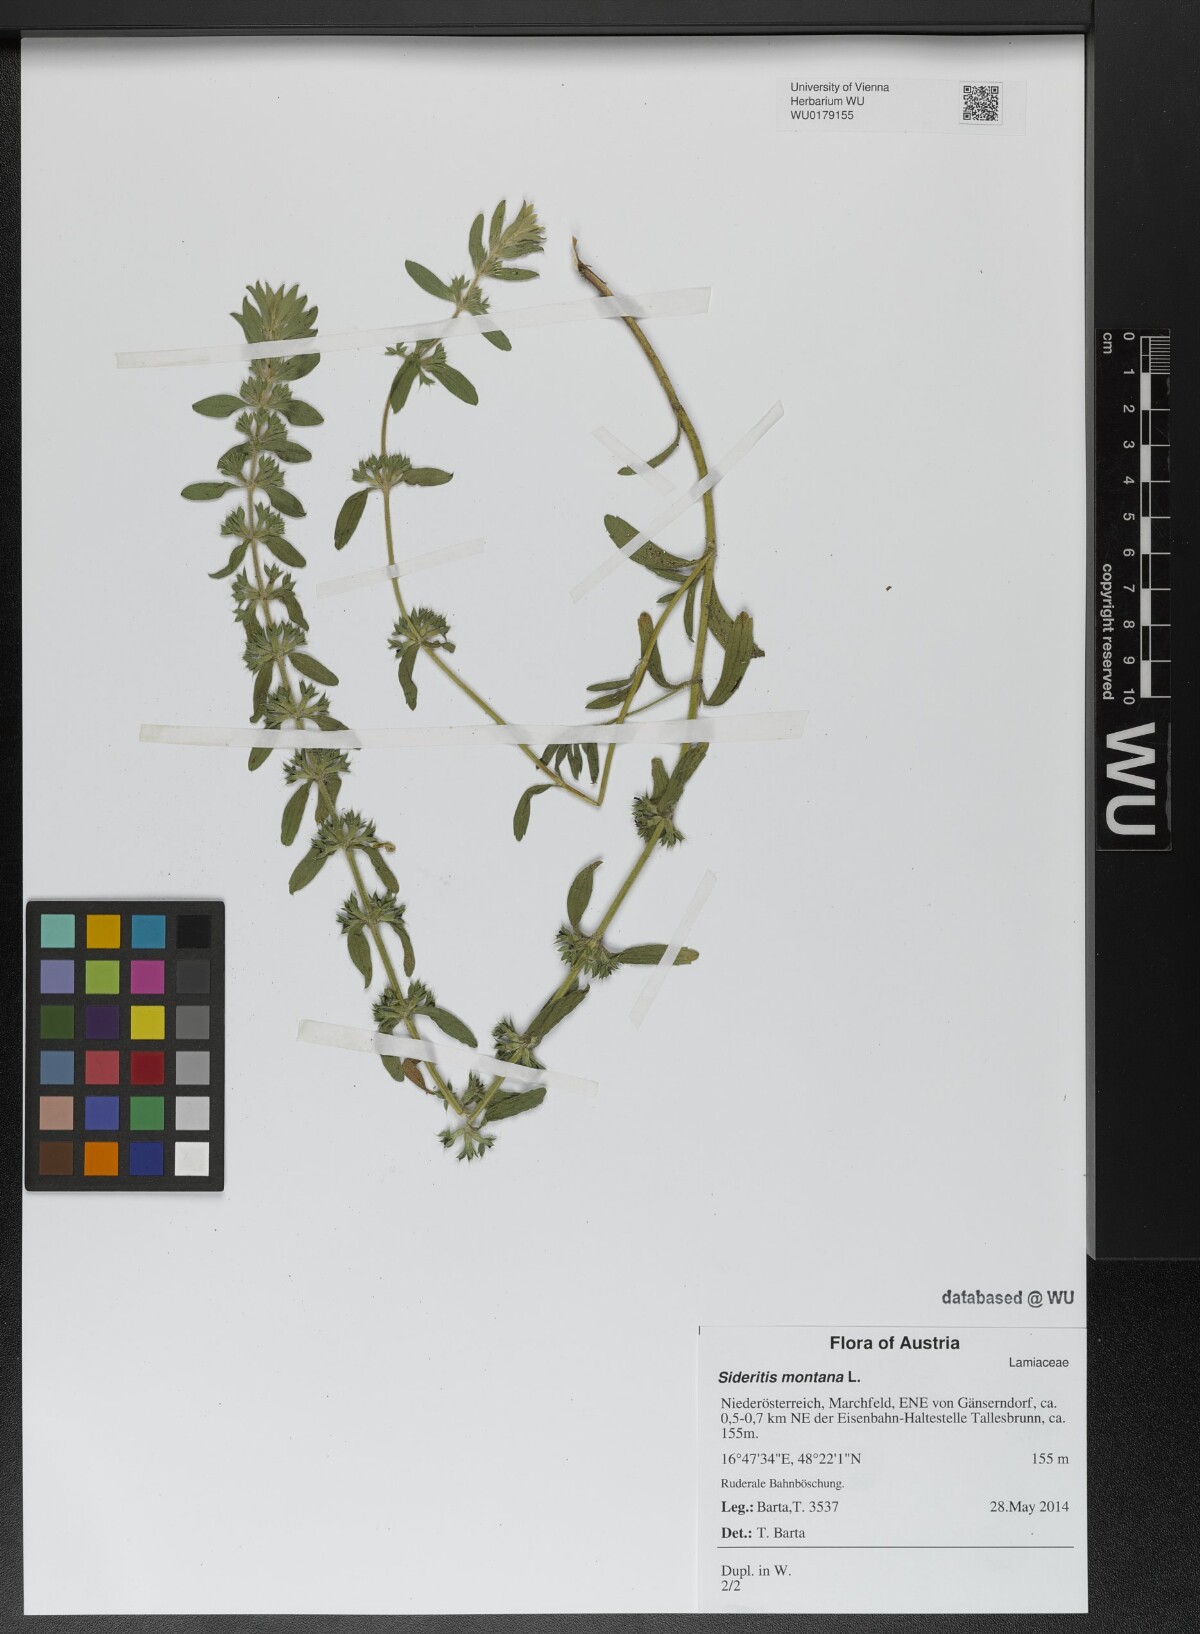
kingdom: Plantae
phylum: Tracheophyta
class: Magnoliopsida
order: Lamiales
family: Lamiaceae
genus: Sideritis
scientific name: Sideritis montana
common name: Mountain ironwort
